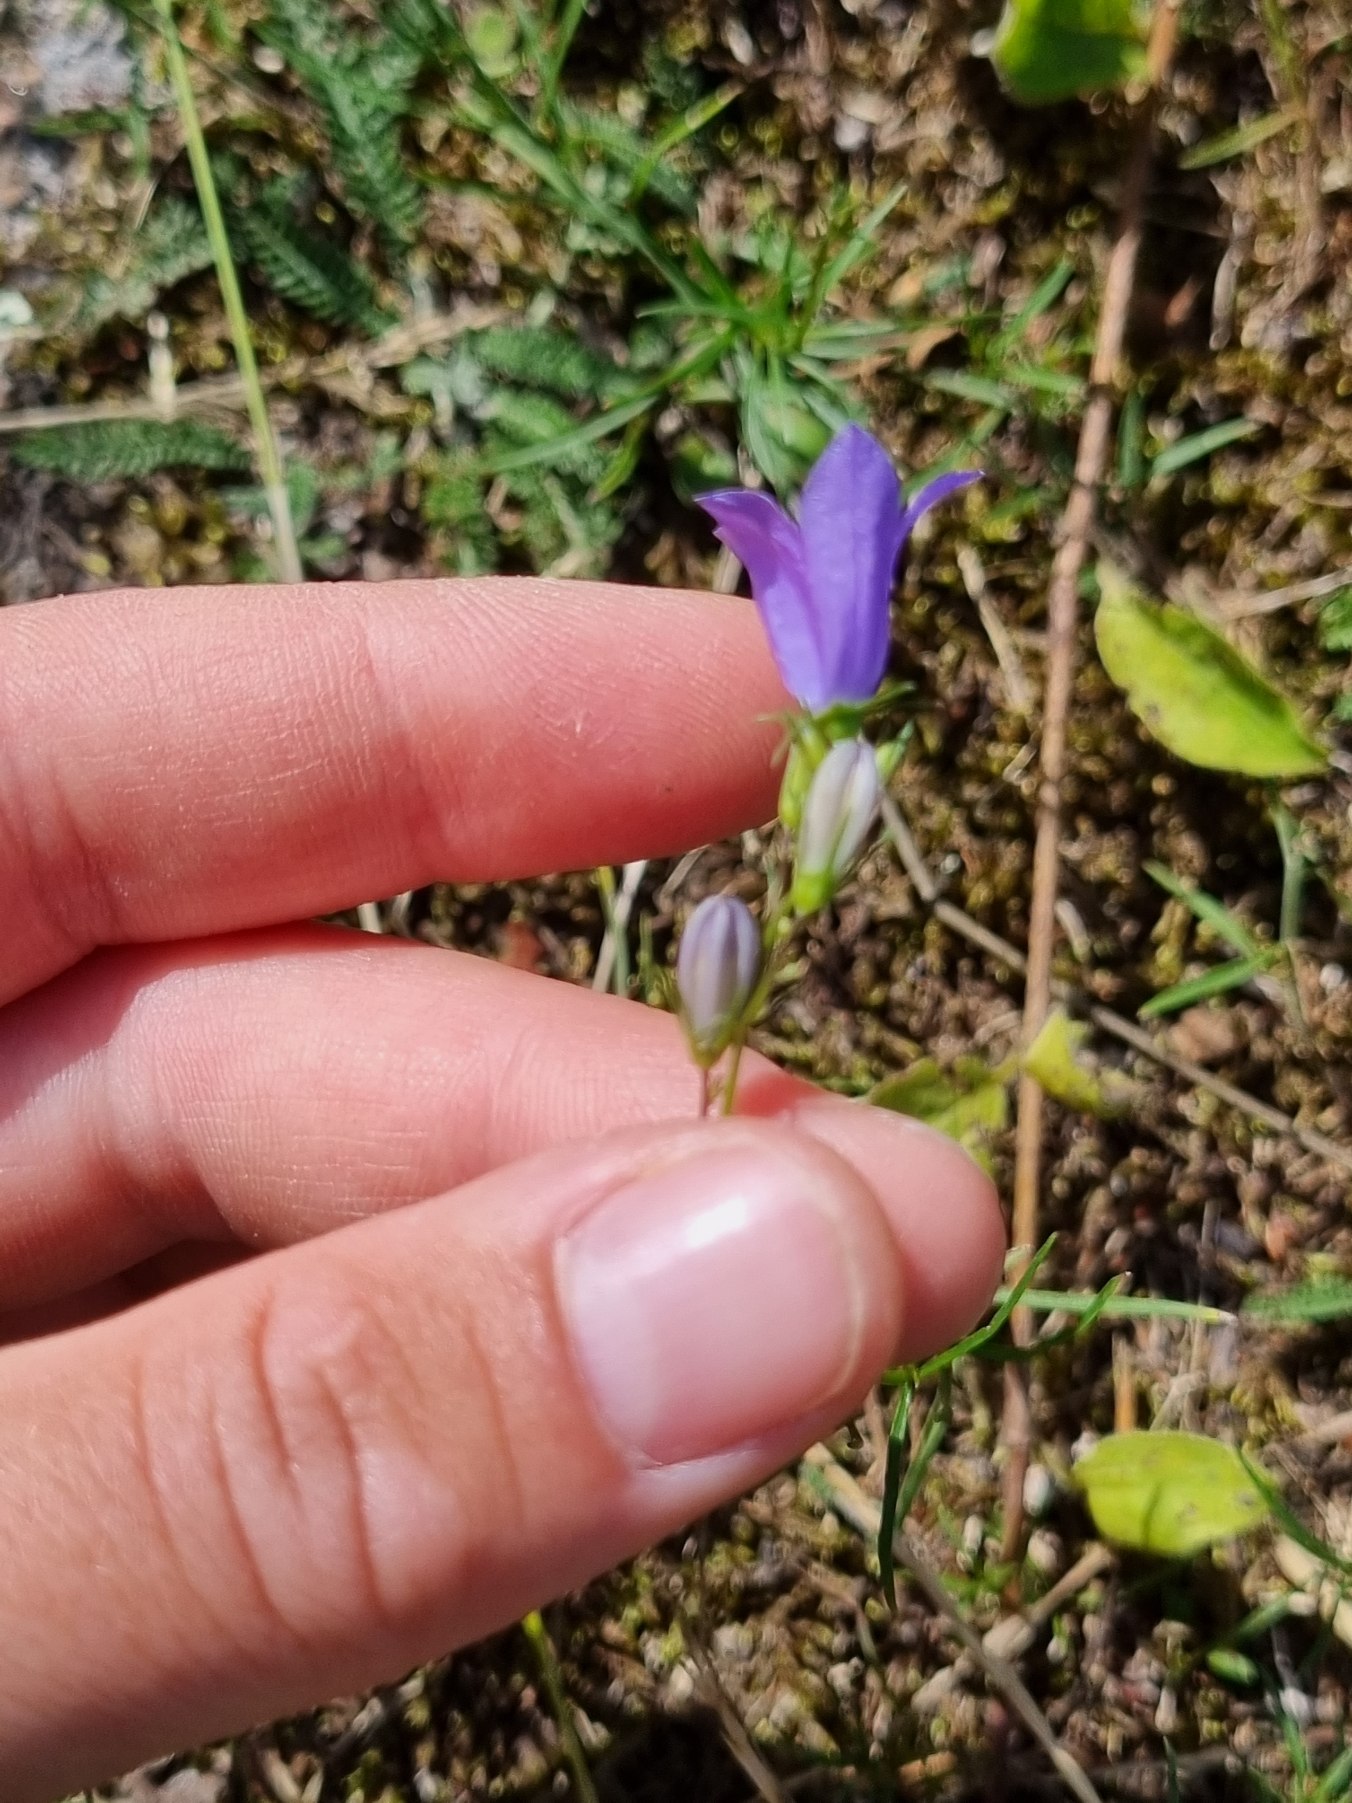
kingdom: Plantae
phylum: Tracheophyta
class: Magnoliopsida
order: Asterales
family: Campanulaceae
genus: Campanula
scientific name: Campanula rotundifolia
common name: Liden klokke
